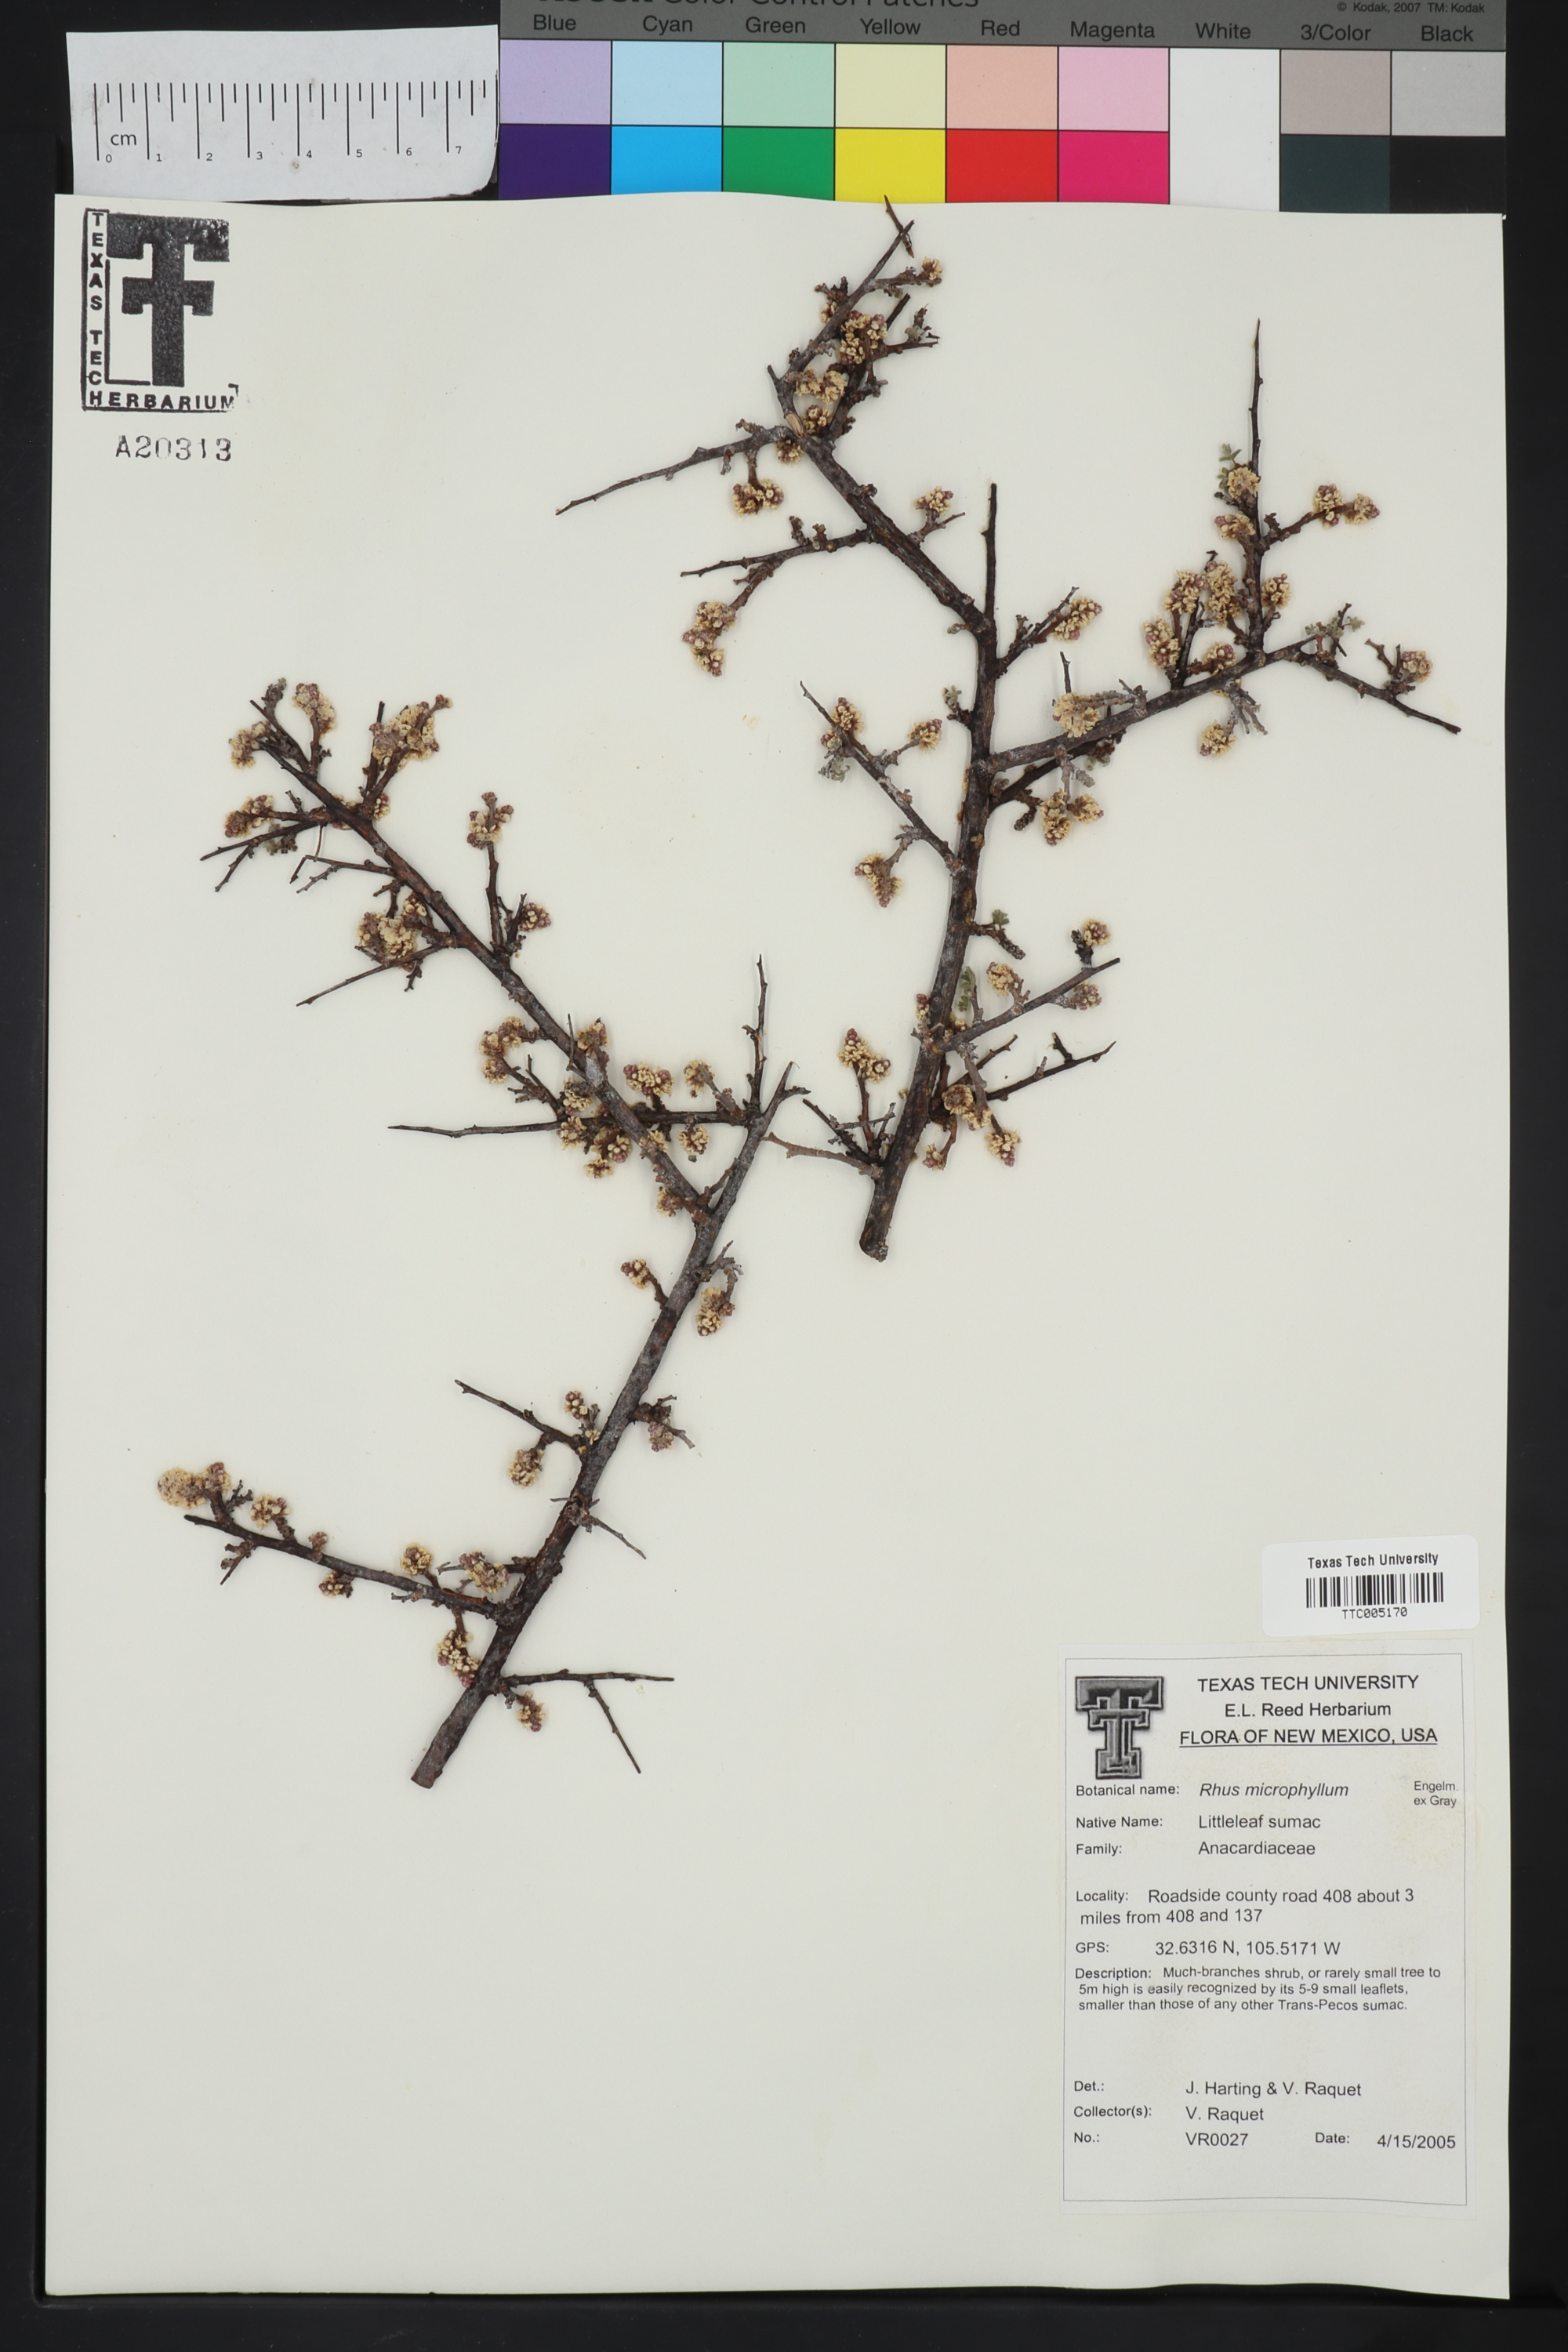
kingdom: Plantae
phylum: Tracheophyta
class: Magnoliopsida
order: Sapindales
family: Anacardiaceae
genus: Rhus
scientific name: Rhus microphylla
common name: Desert sumac
